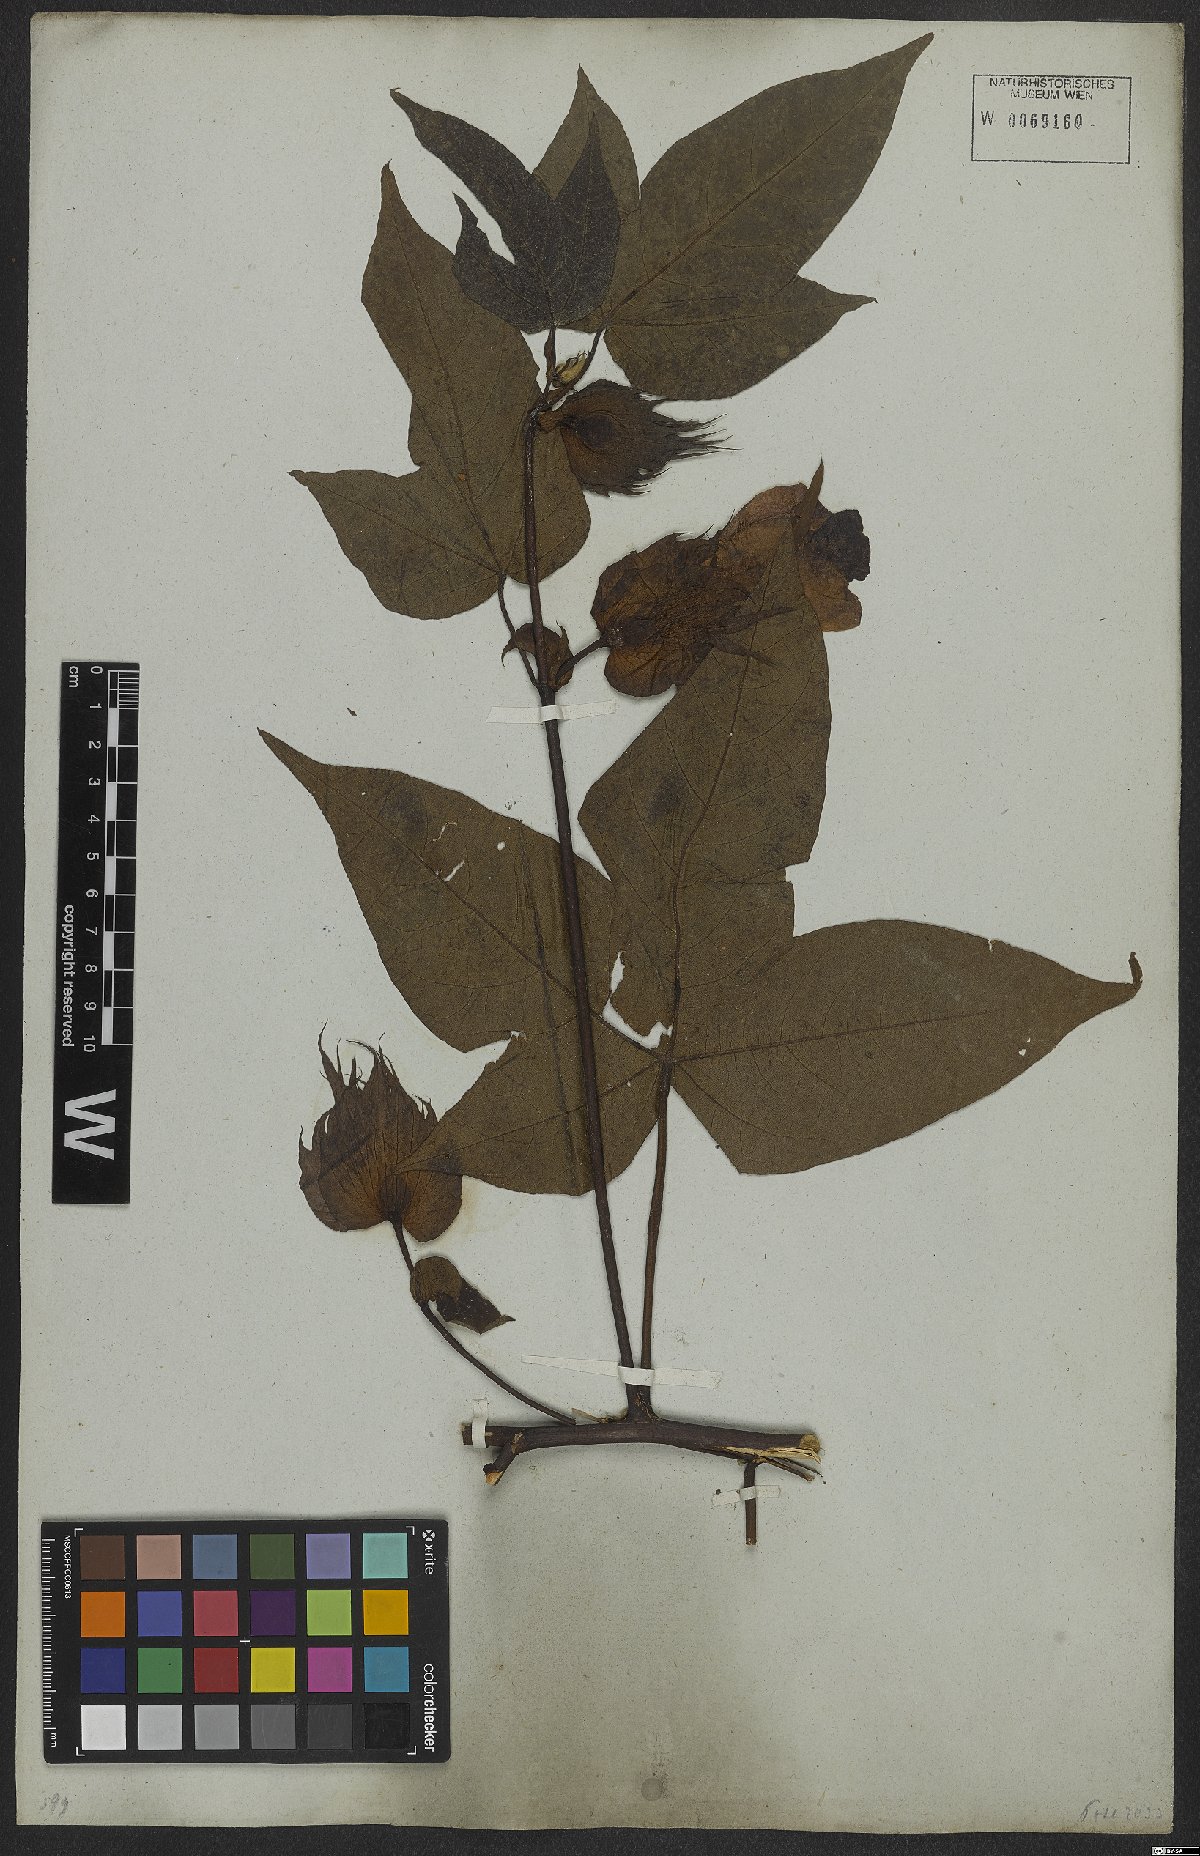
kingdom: Plantae
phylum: Tracheophyta
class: Magnoliopsida
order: Malvales
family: Malvaceae
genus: Gossypium
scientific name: Gossypium hirsutum
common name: Cotton
